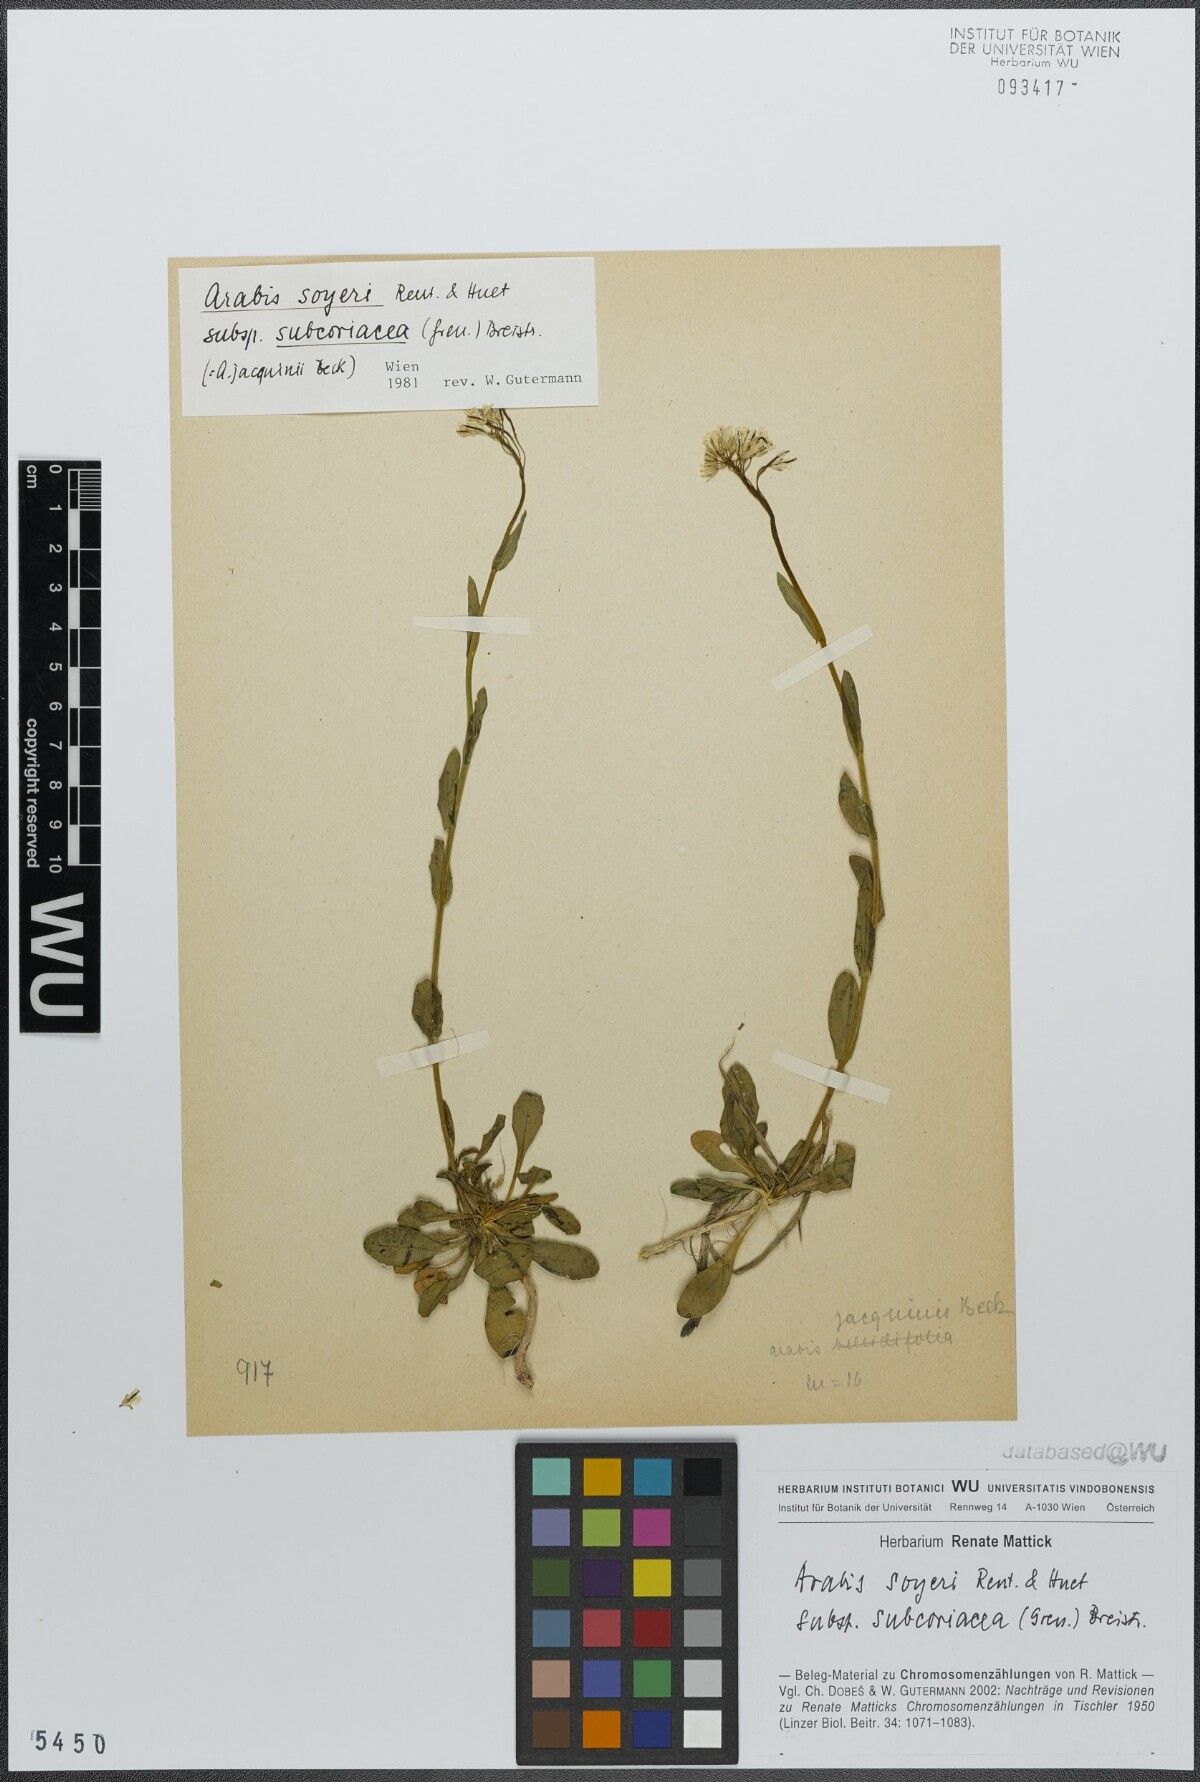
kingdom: Plantae
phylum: Tracheophyta
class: Magnoliopsida
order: Brassicales
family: Brassicaceae
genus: Arabis
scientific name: Arabis soyeri
